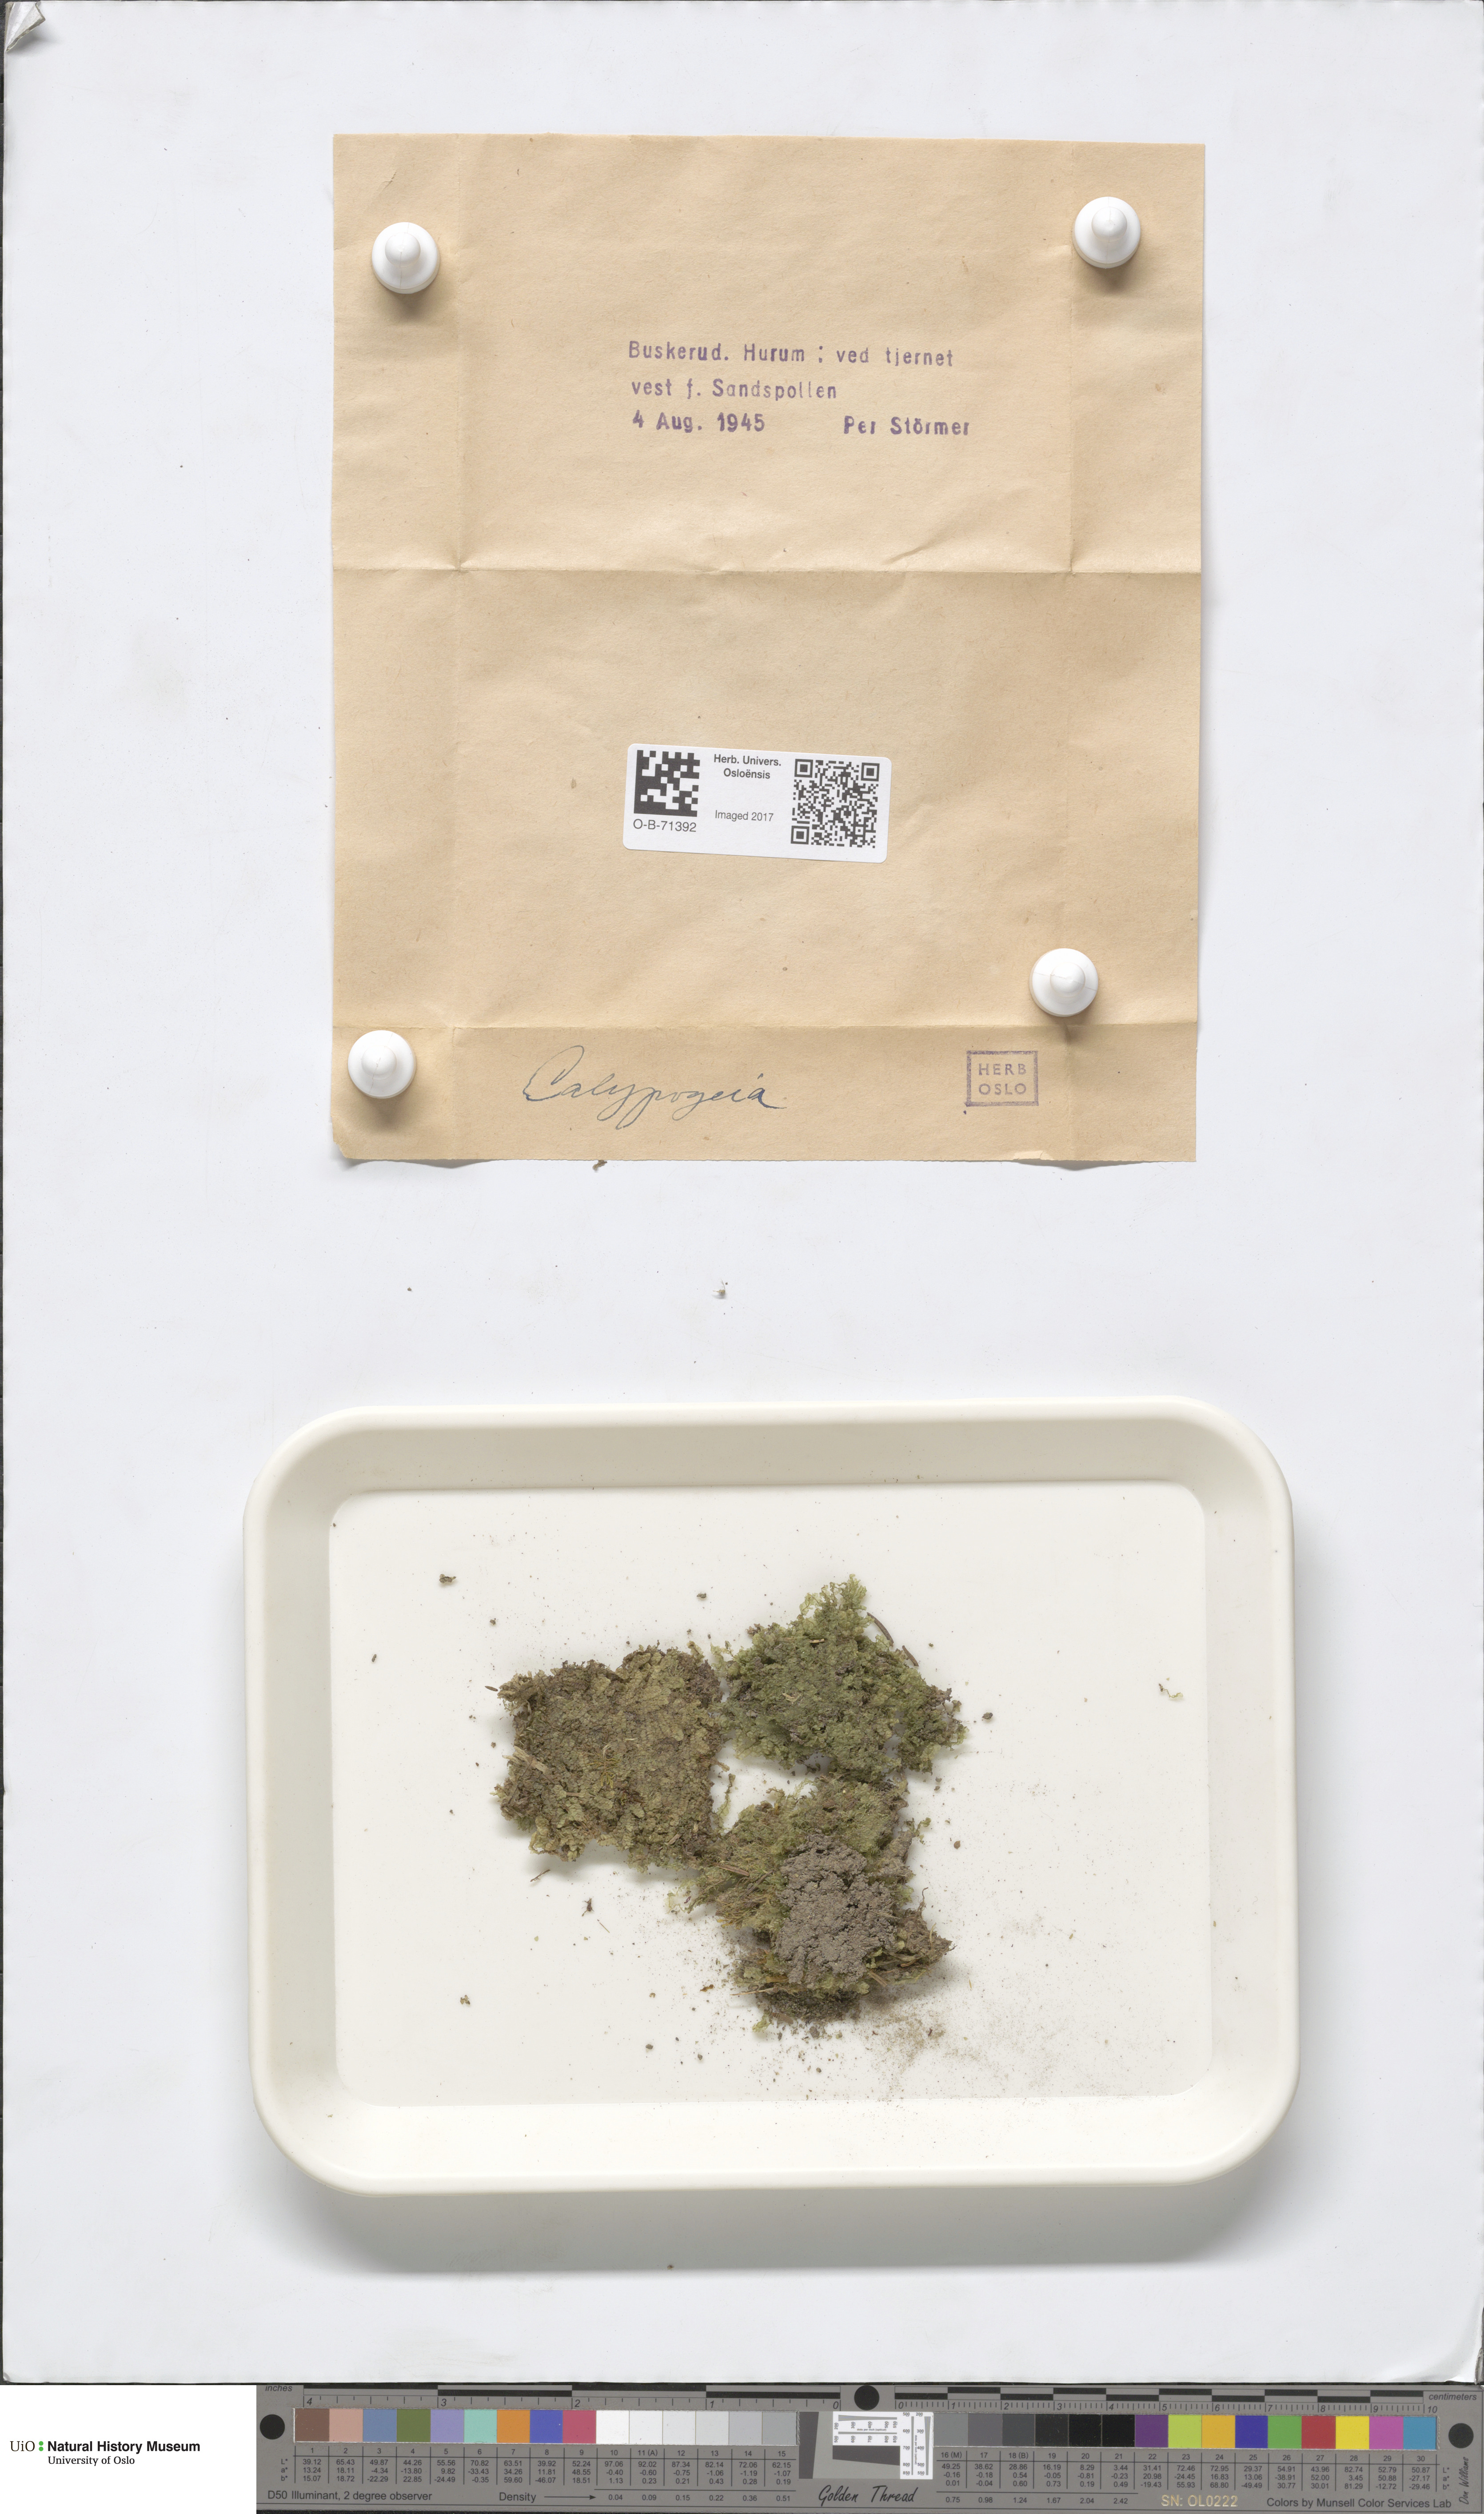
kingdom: Plantae
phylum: Marchantiophyta
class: Jungermanniopsida
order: Jungermanniales
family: Calypogeiaceae
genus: Calypogeia
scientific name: Calypogeia
